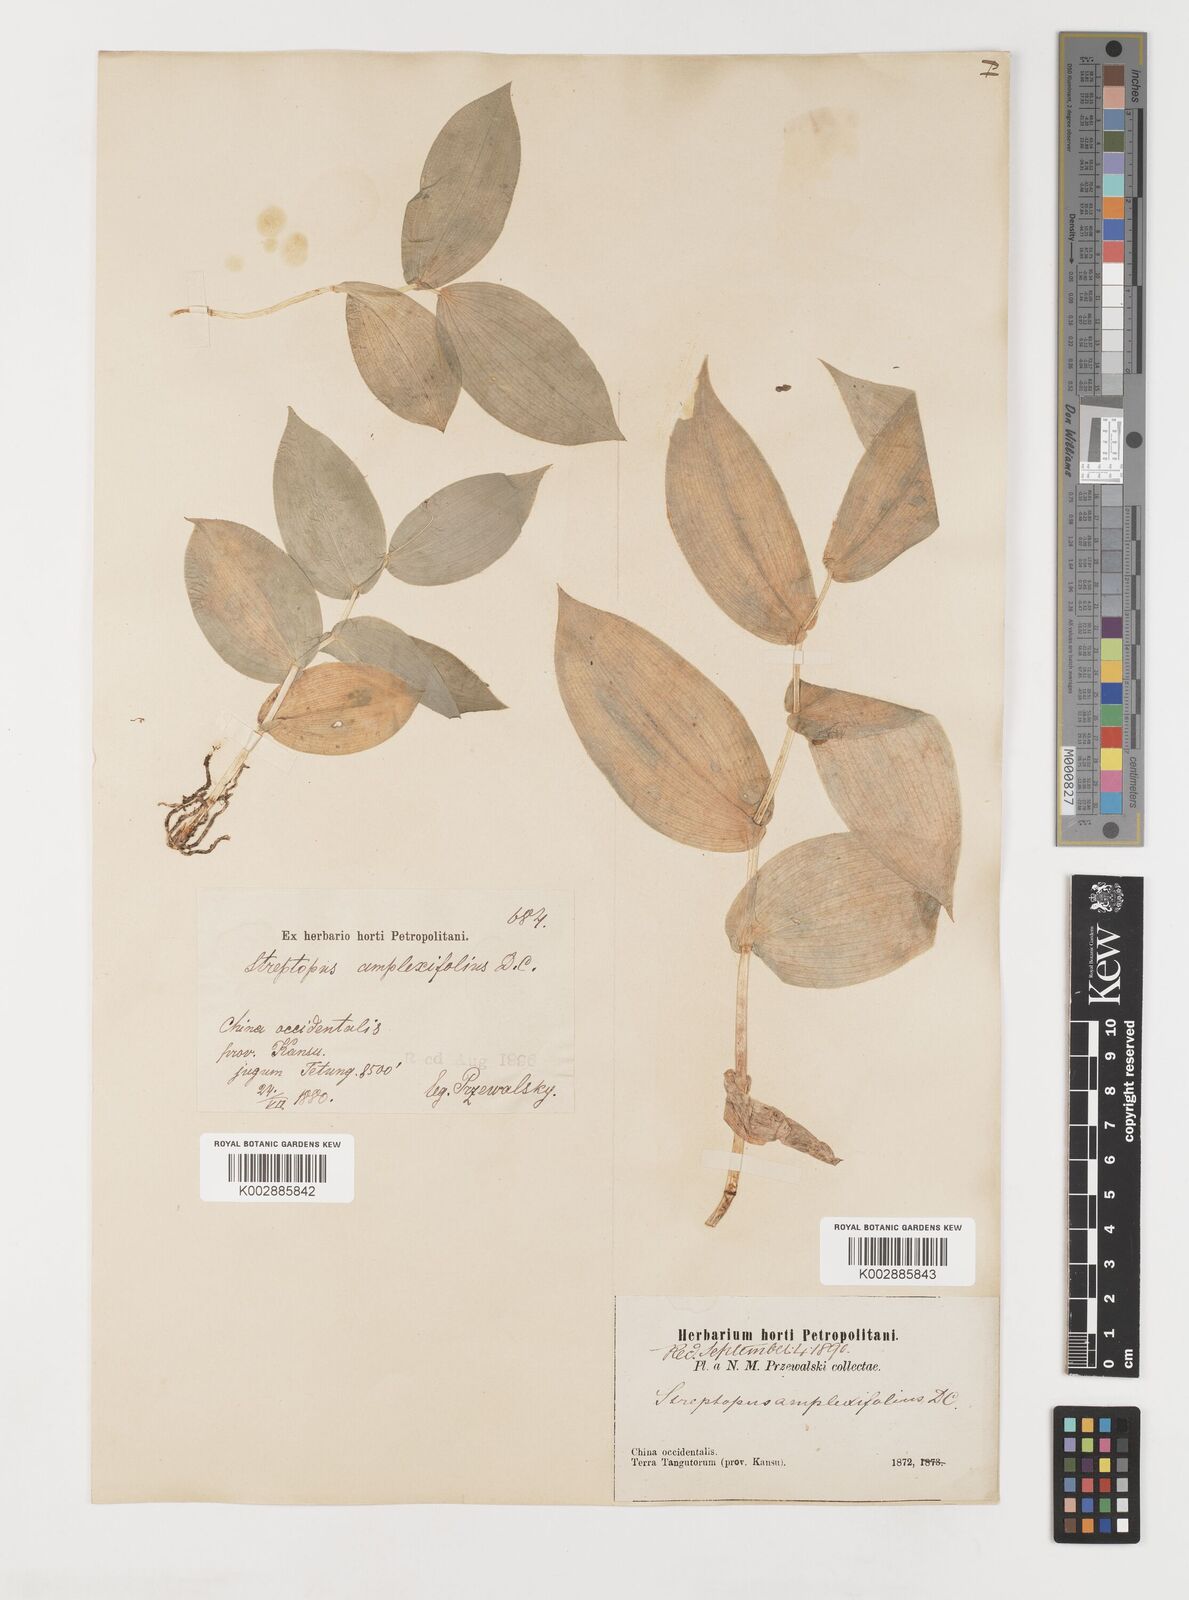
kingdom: Plantae
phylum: Tracheophyta
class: Liliopsida
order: Liliales
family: Liliaceae
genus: Streptopus
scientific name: Streptopus amplexifolius
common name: Clasp twisted stalk
